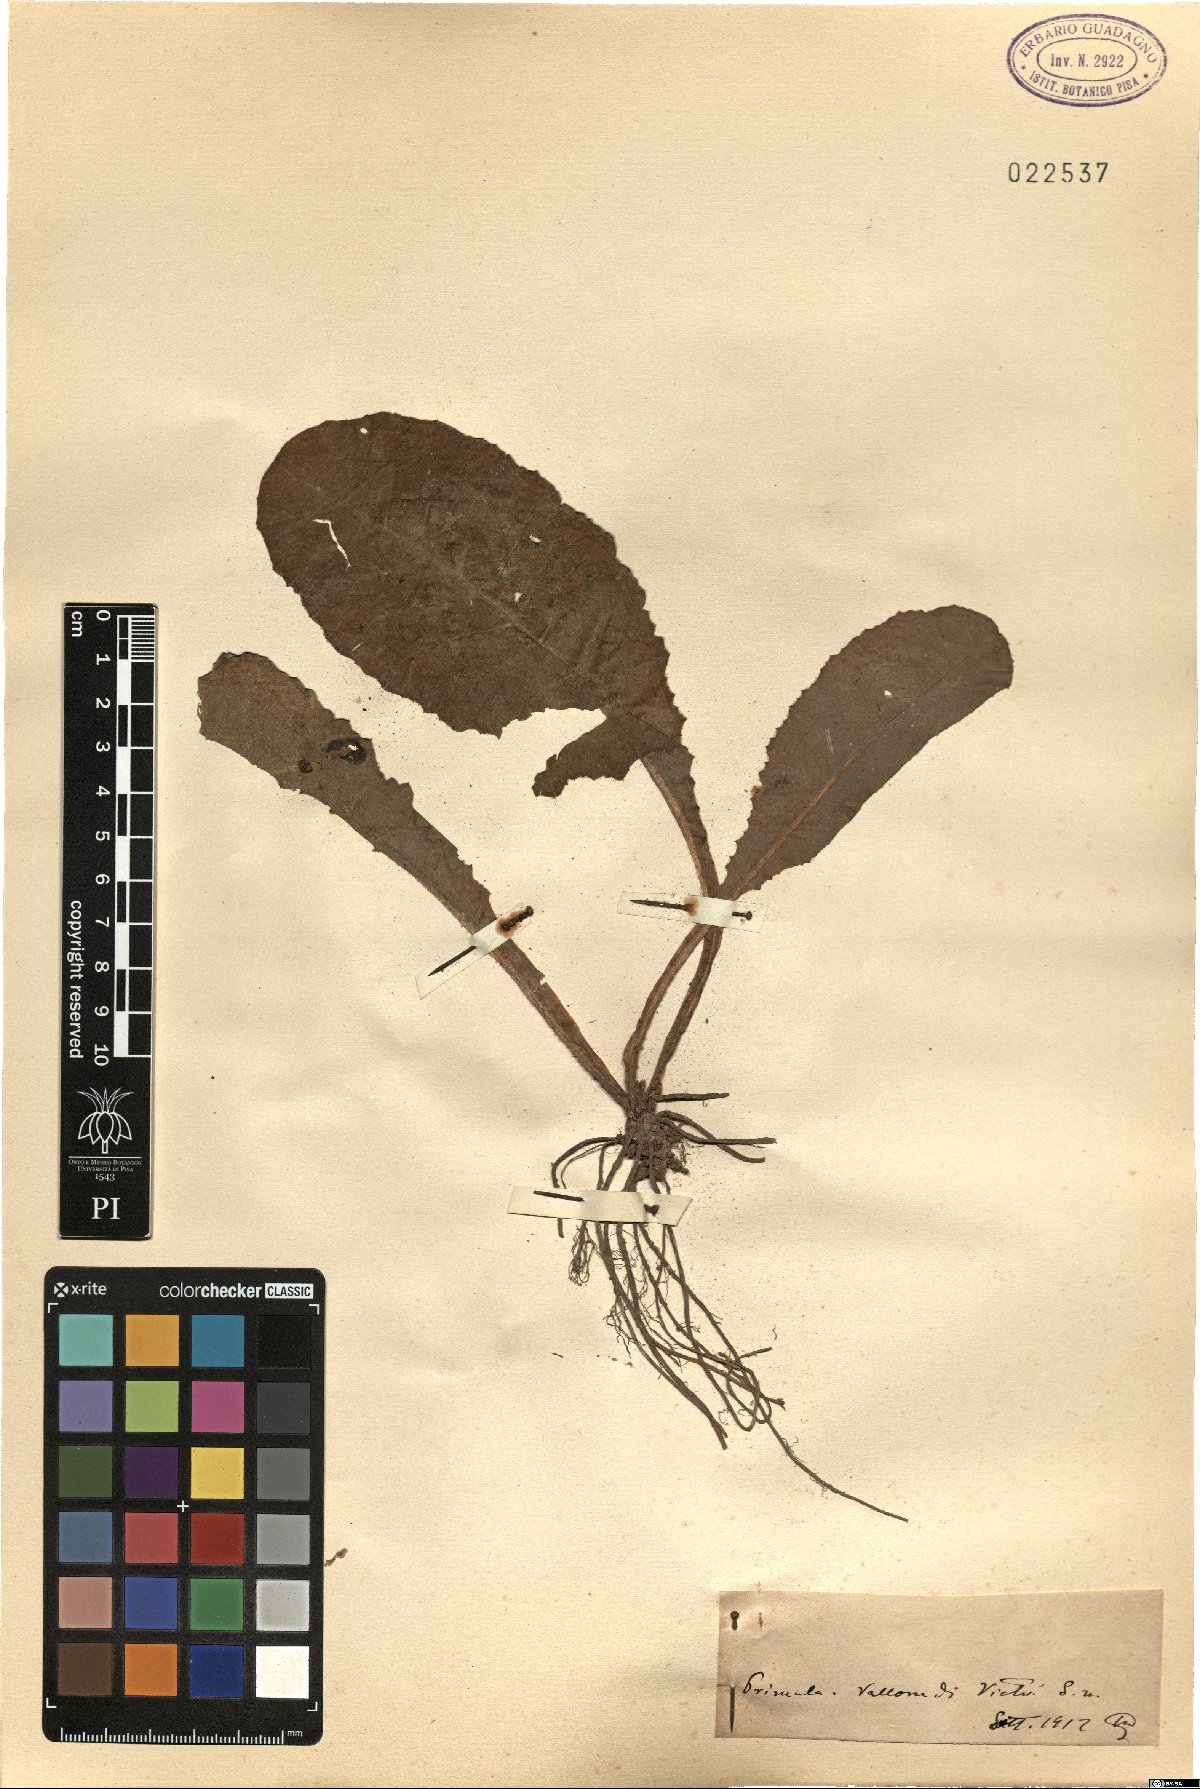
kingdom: Plantae
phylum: Tracheophyta
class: Magnoliopsida
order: Ericales
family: Primulaceae
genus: Primula
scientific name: Primula
